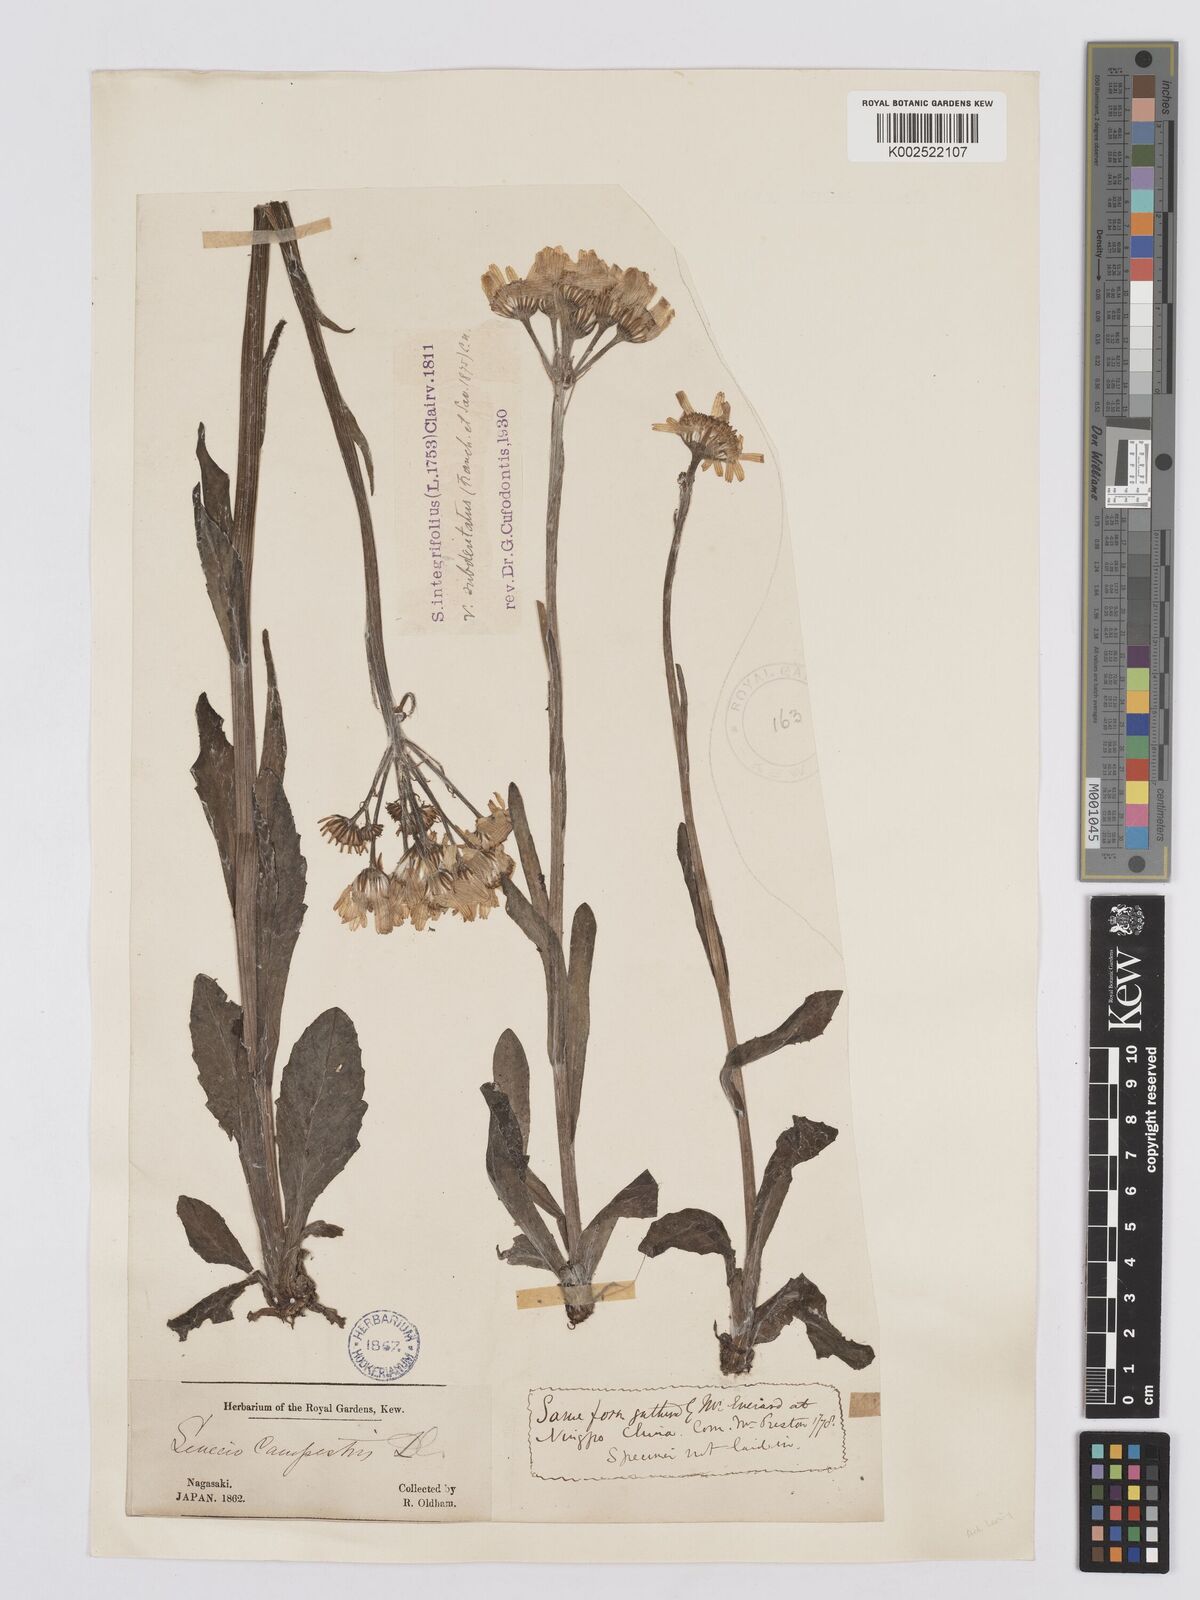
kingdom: Plantae
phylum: Tracheophyta
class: Magnoliopsida
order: Asterales
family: Asteraceae
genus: Tephroseris
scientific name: Tephroseris kirilowii
